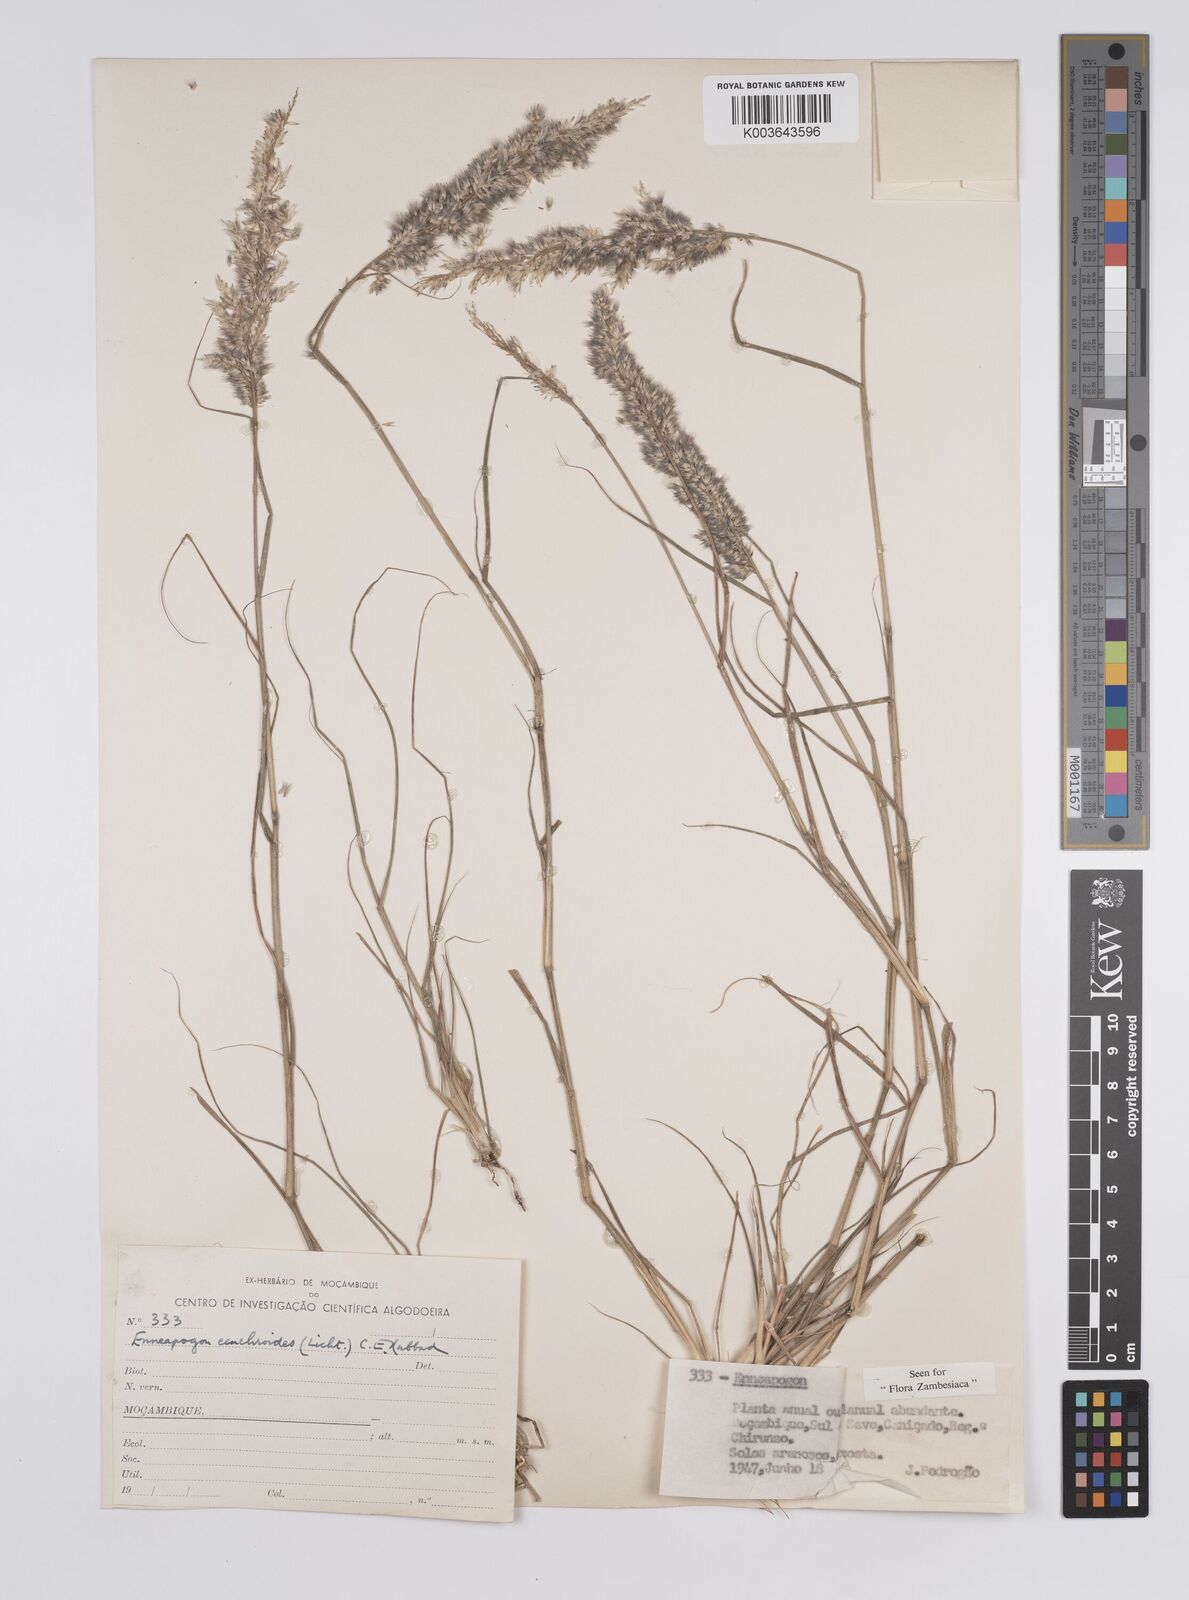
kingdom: Plantae
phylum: Tracheophyta
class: Liliopsida
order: Poales
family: Poaceae
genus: Enneapogon
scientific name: Enneapogon cenchroides
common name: Soft feather pappusgrass
